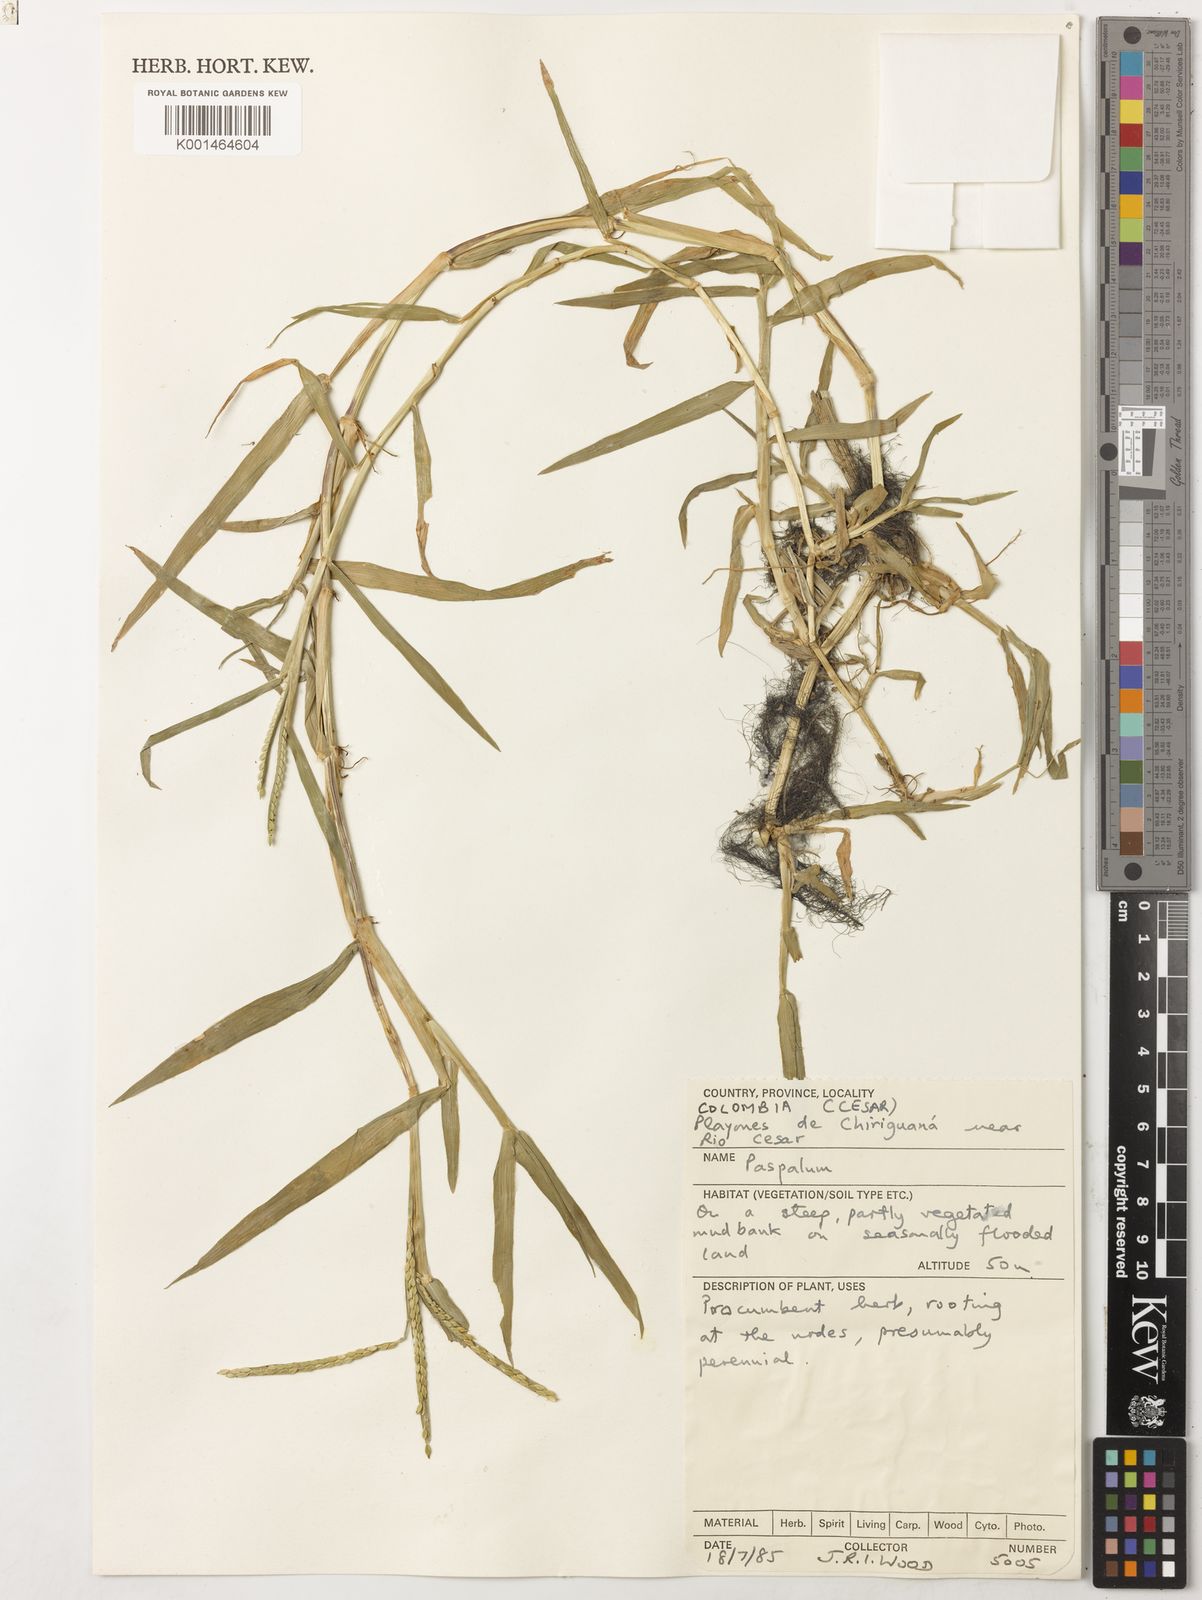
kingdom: Plantae
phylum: Tracheophyta
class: Liliopsida
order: Poales
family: Poaceae
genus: Paspalum
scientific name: Paspalum acuminatum
